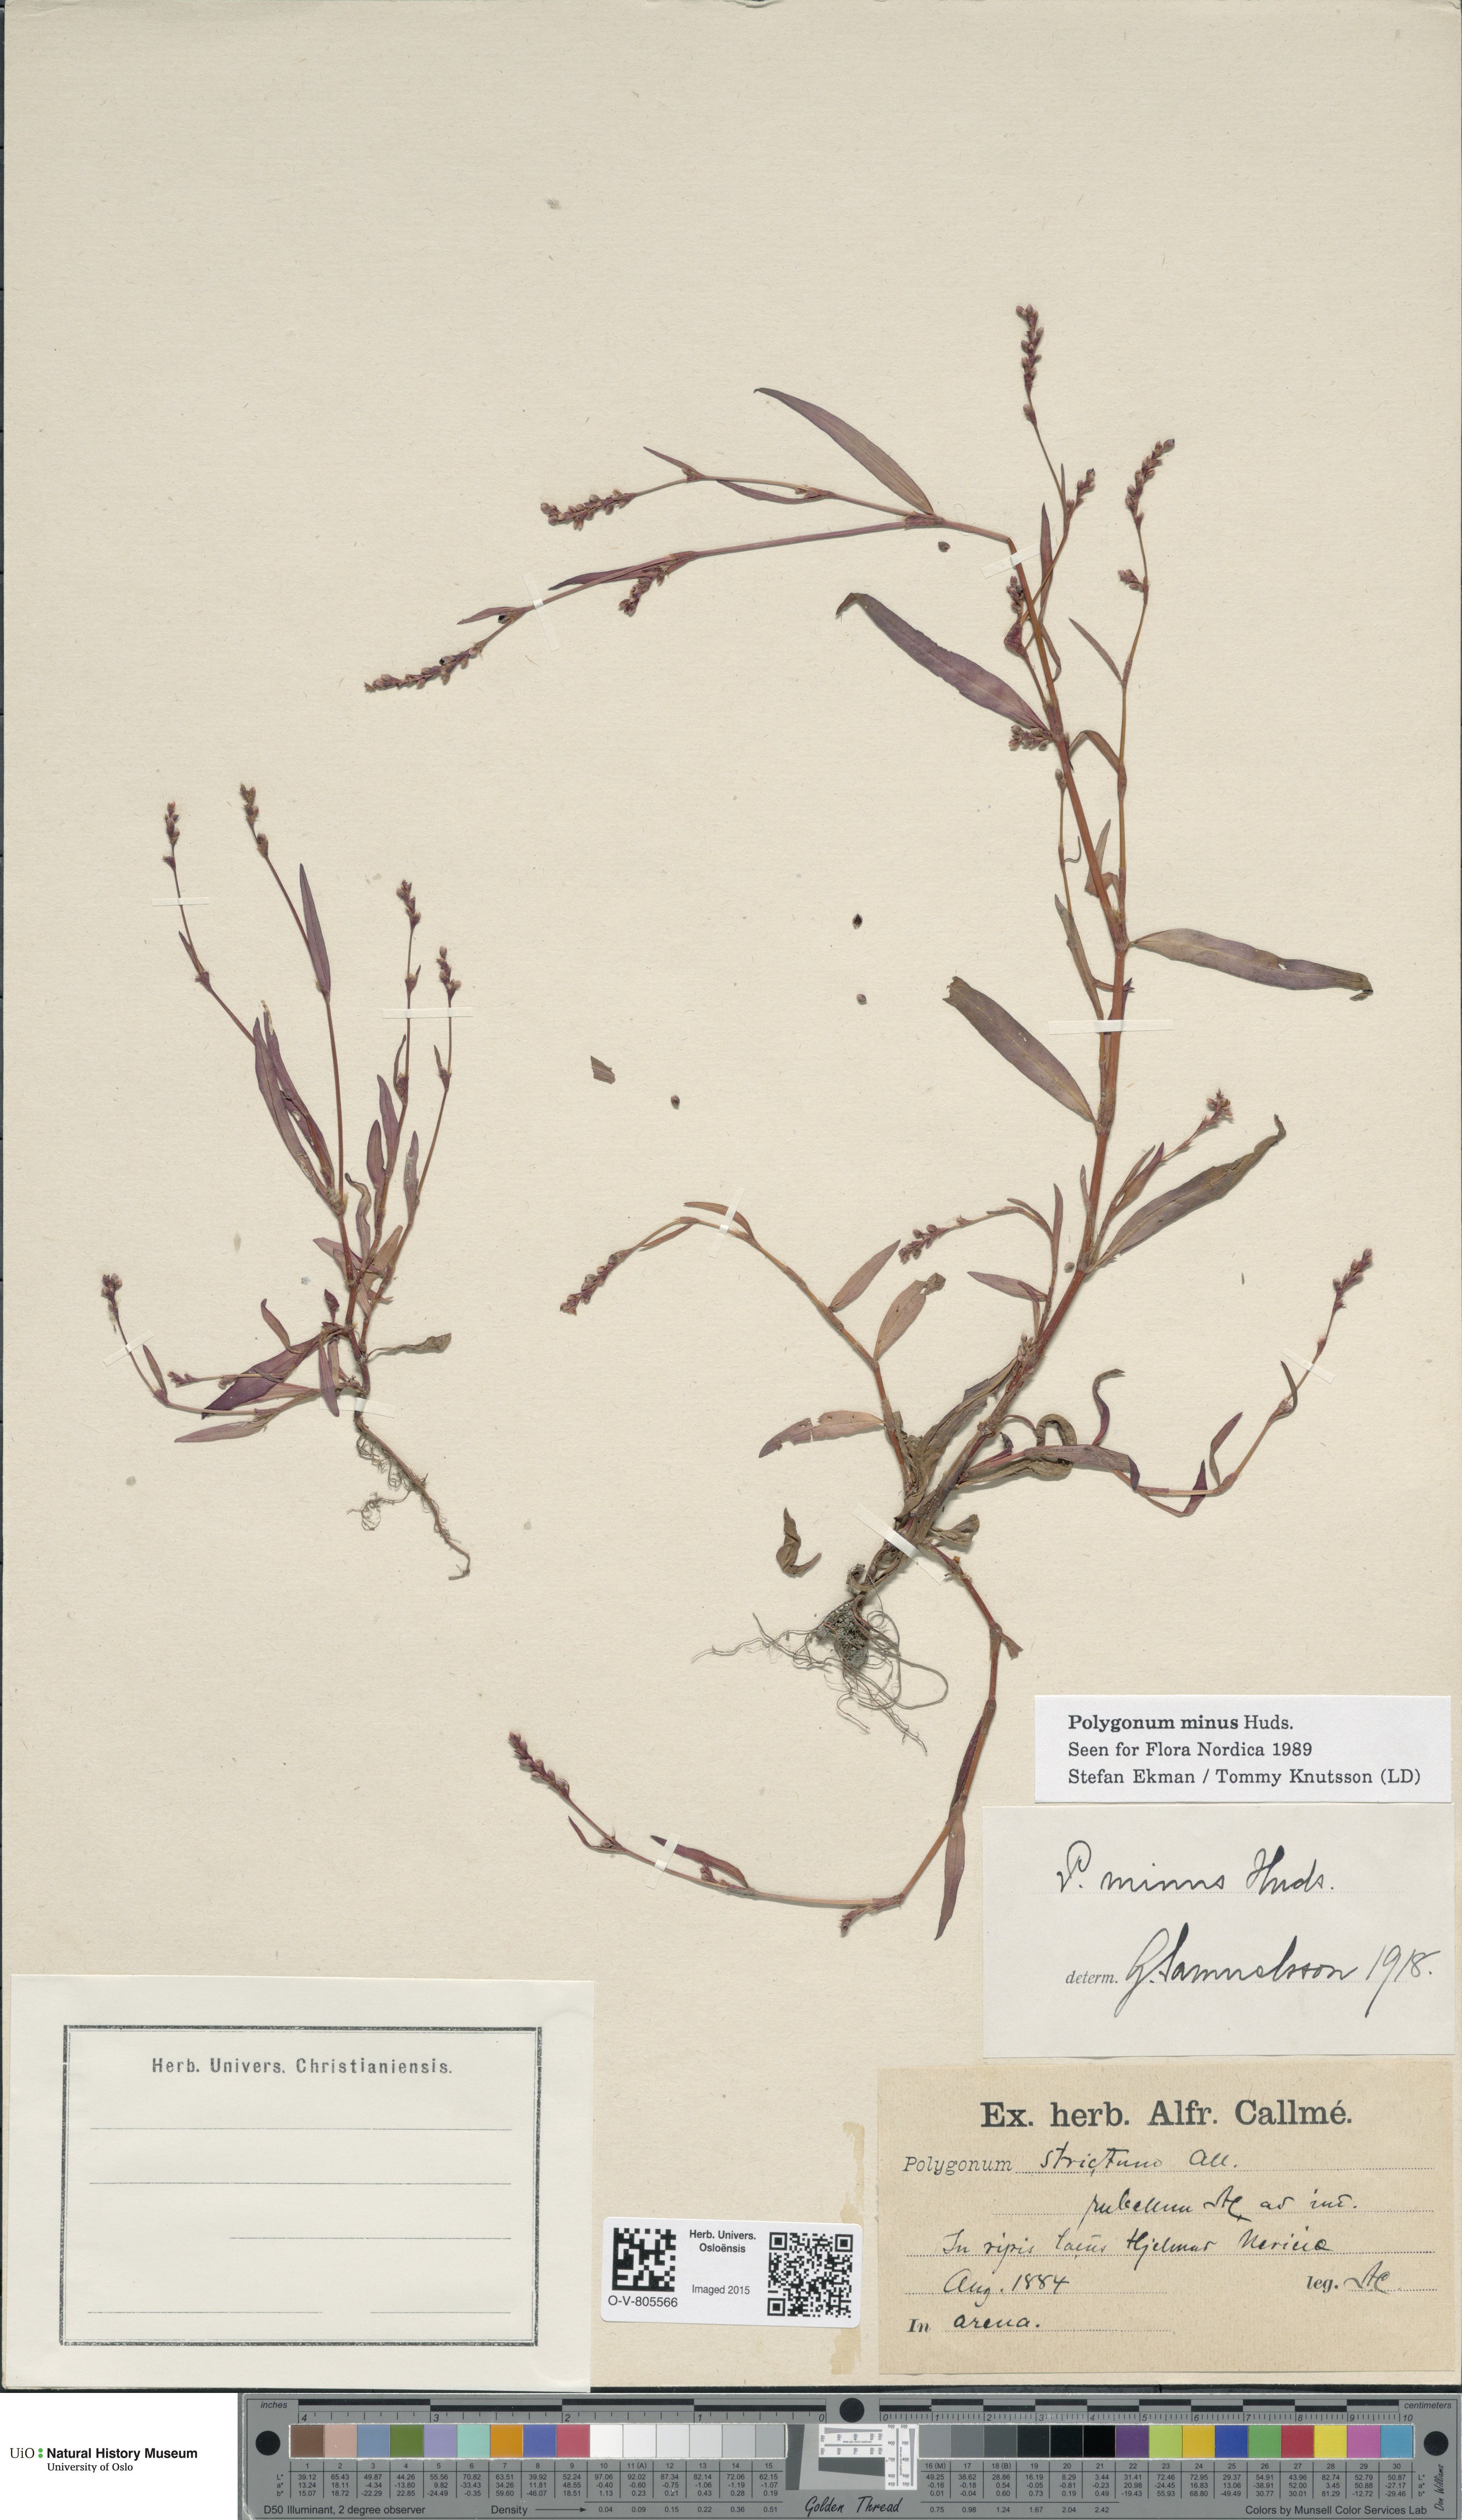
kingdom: Plantae
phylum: Tracheophyta
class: Magnoliopsida
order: Caryophyllales
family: Polygonaceae
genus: Persicaria
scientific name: Persicaria minor
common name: Small water-pepper
